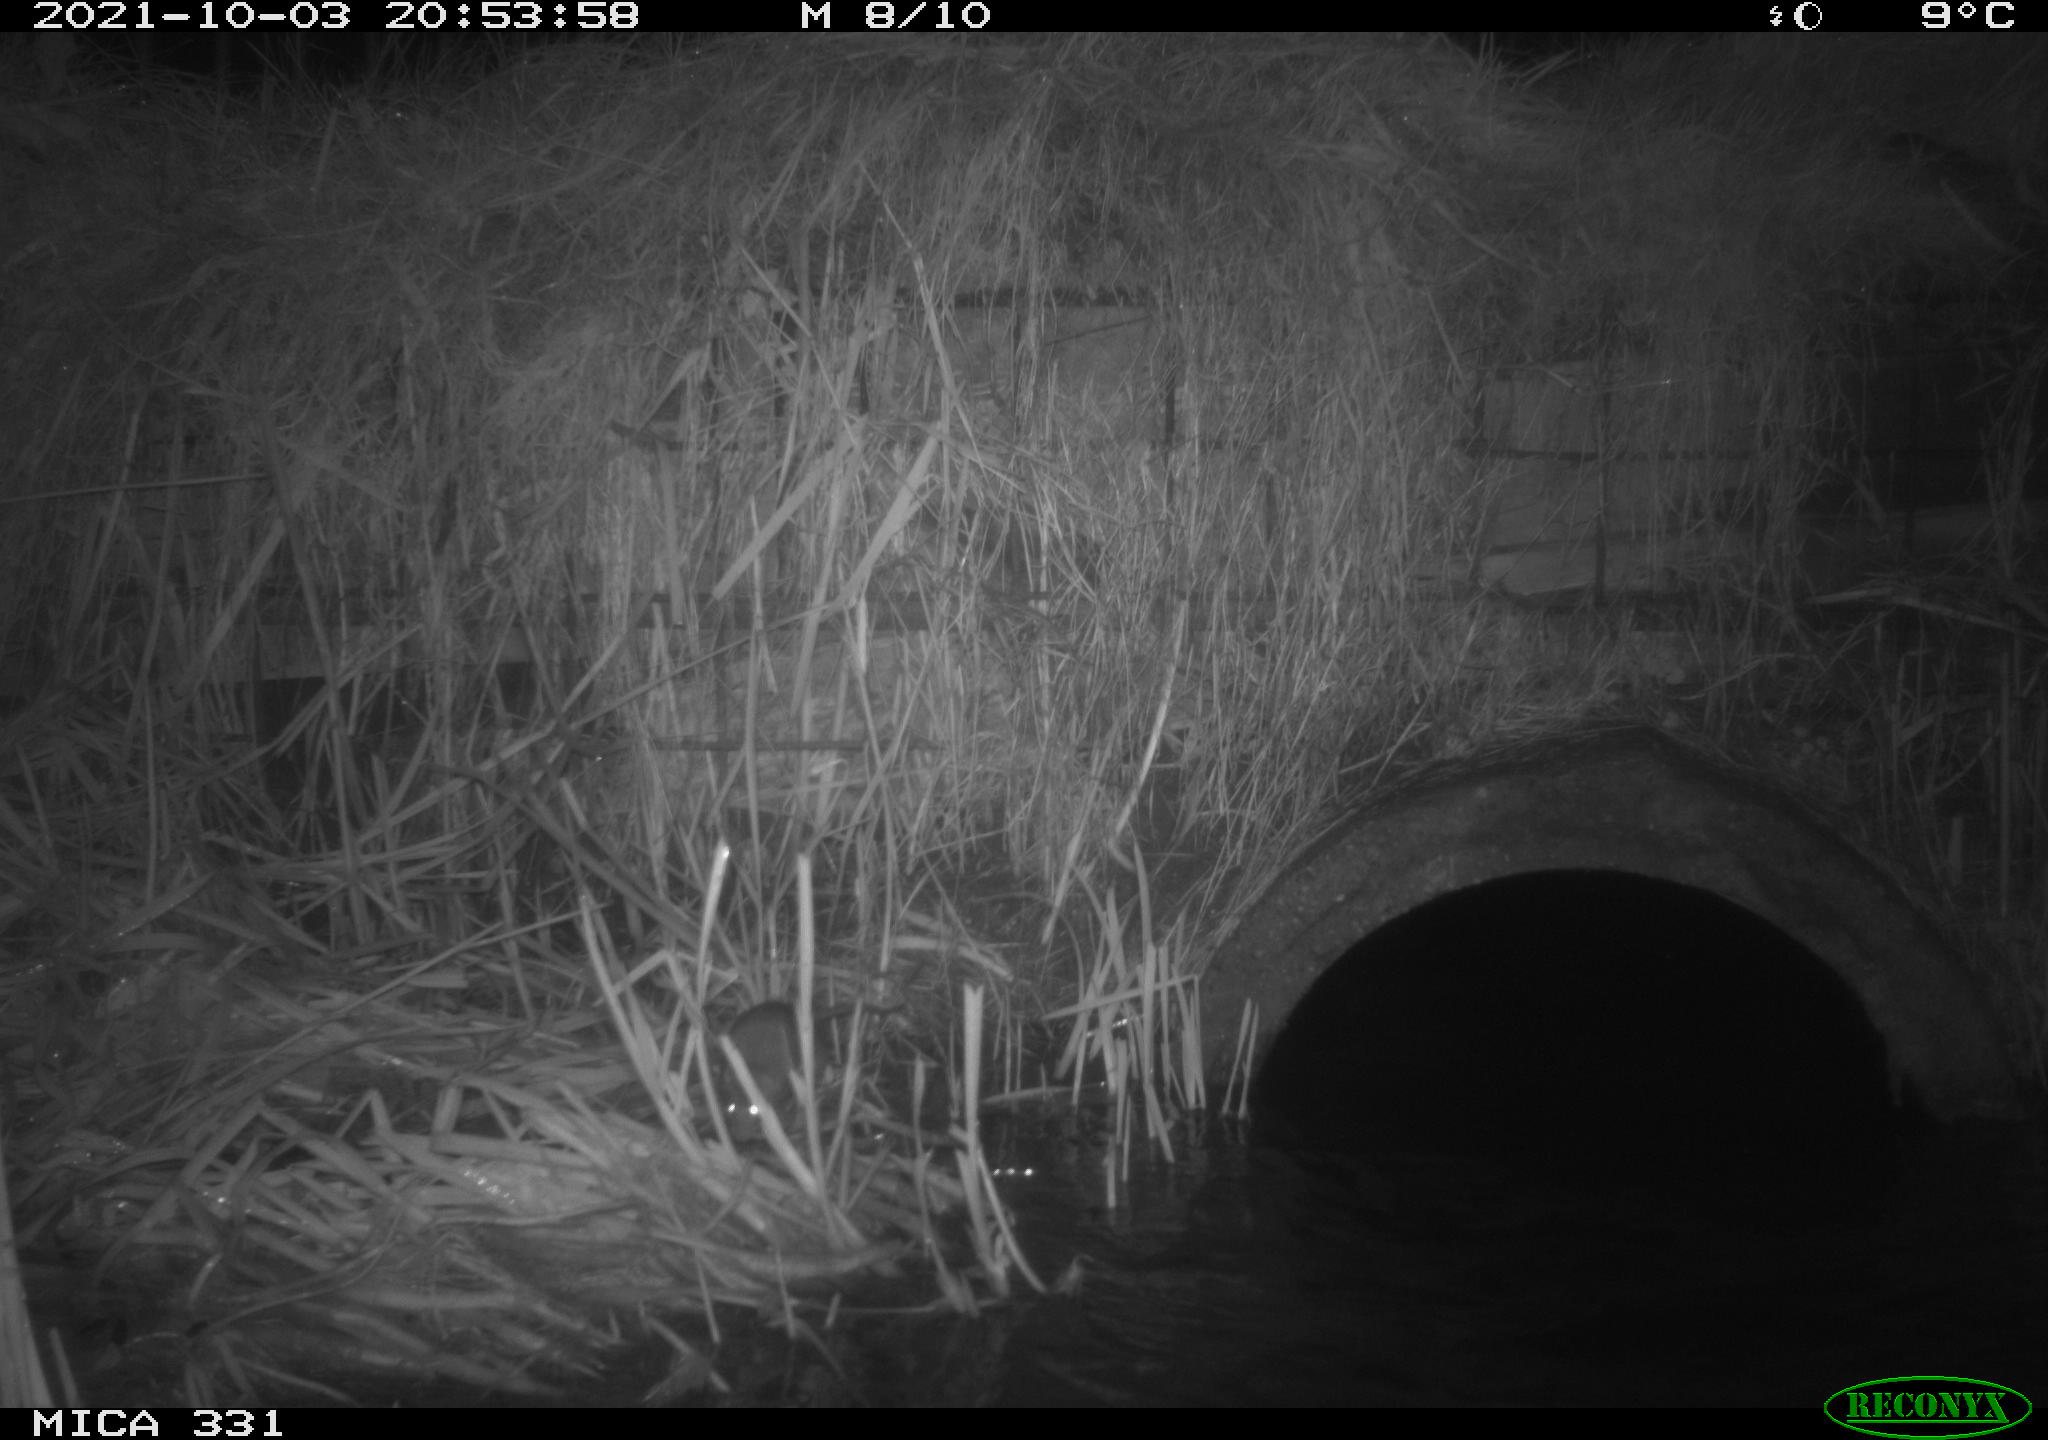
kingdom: Animalia
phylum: Chordata
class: Mammalia
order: Rodentia
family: Muridae
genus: Rattus
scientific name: Rattus norvegicus
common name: Brown rat
